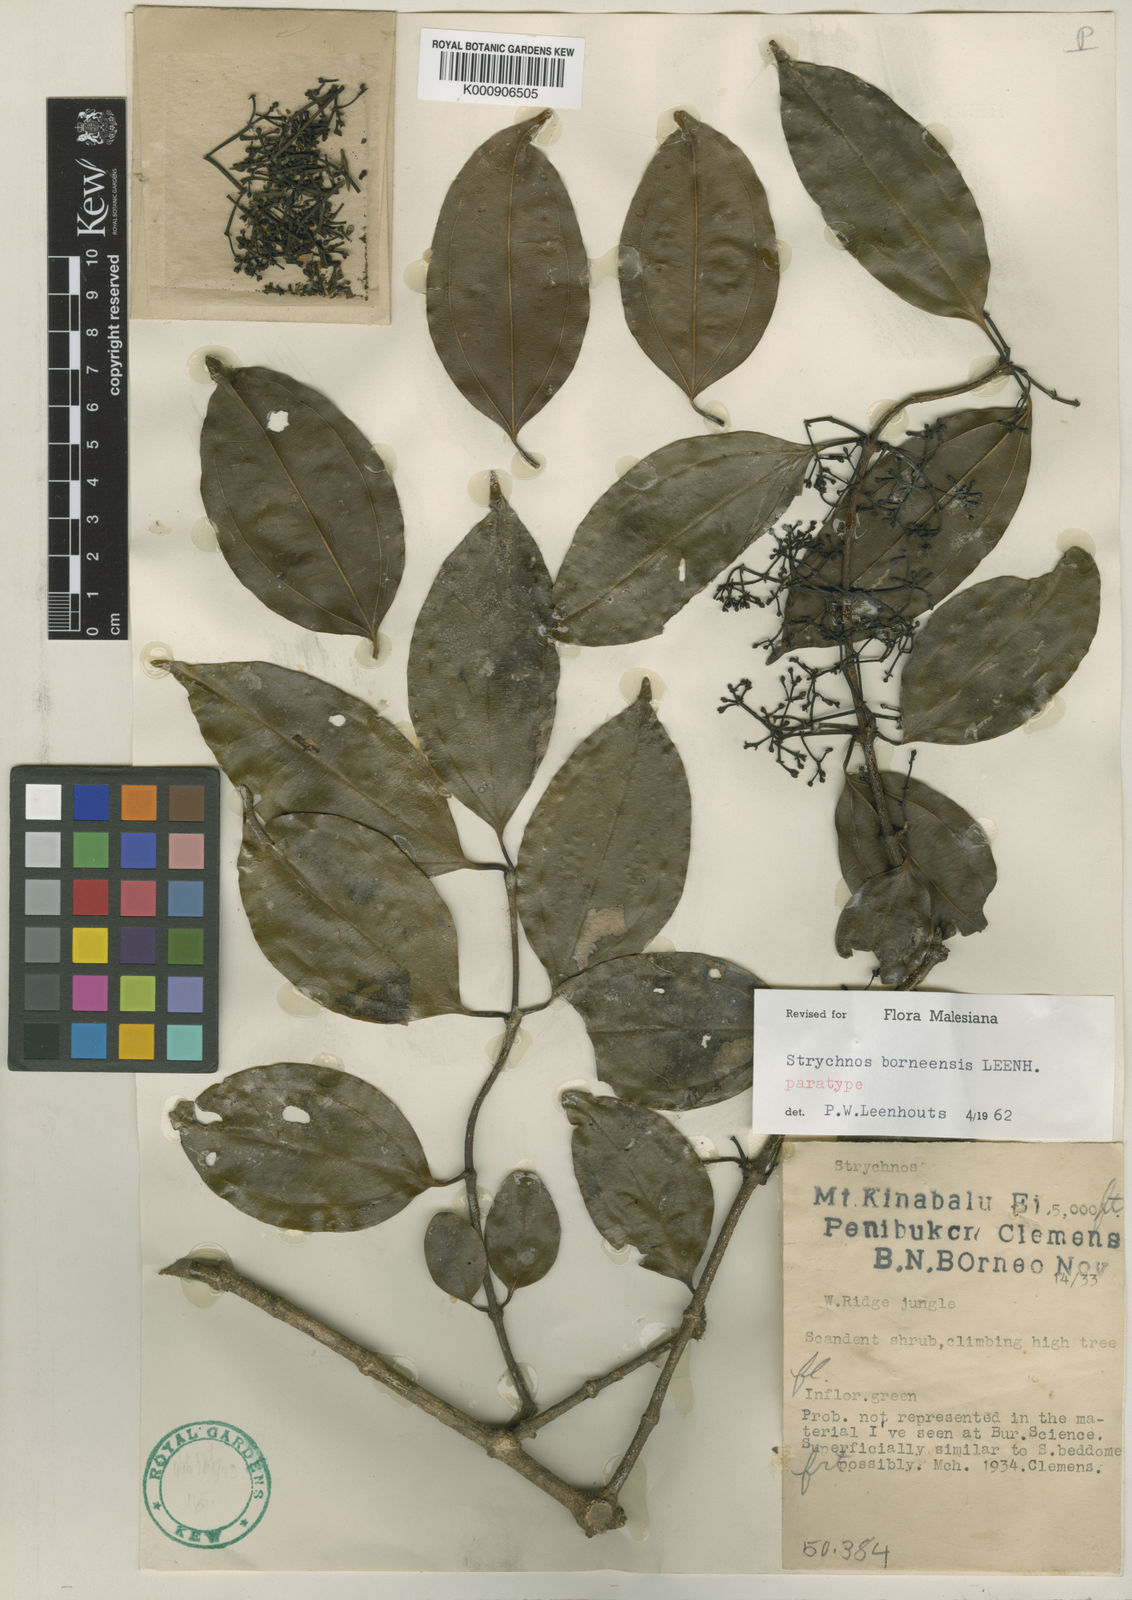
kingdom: Plantae
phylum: Tracheophyta
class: Magnoliopsida
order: Gentianales
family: Loganiaceae
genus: Strychnos
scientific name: Strychnos borneensis
